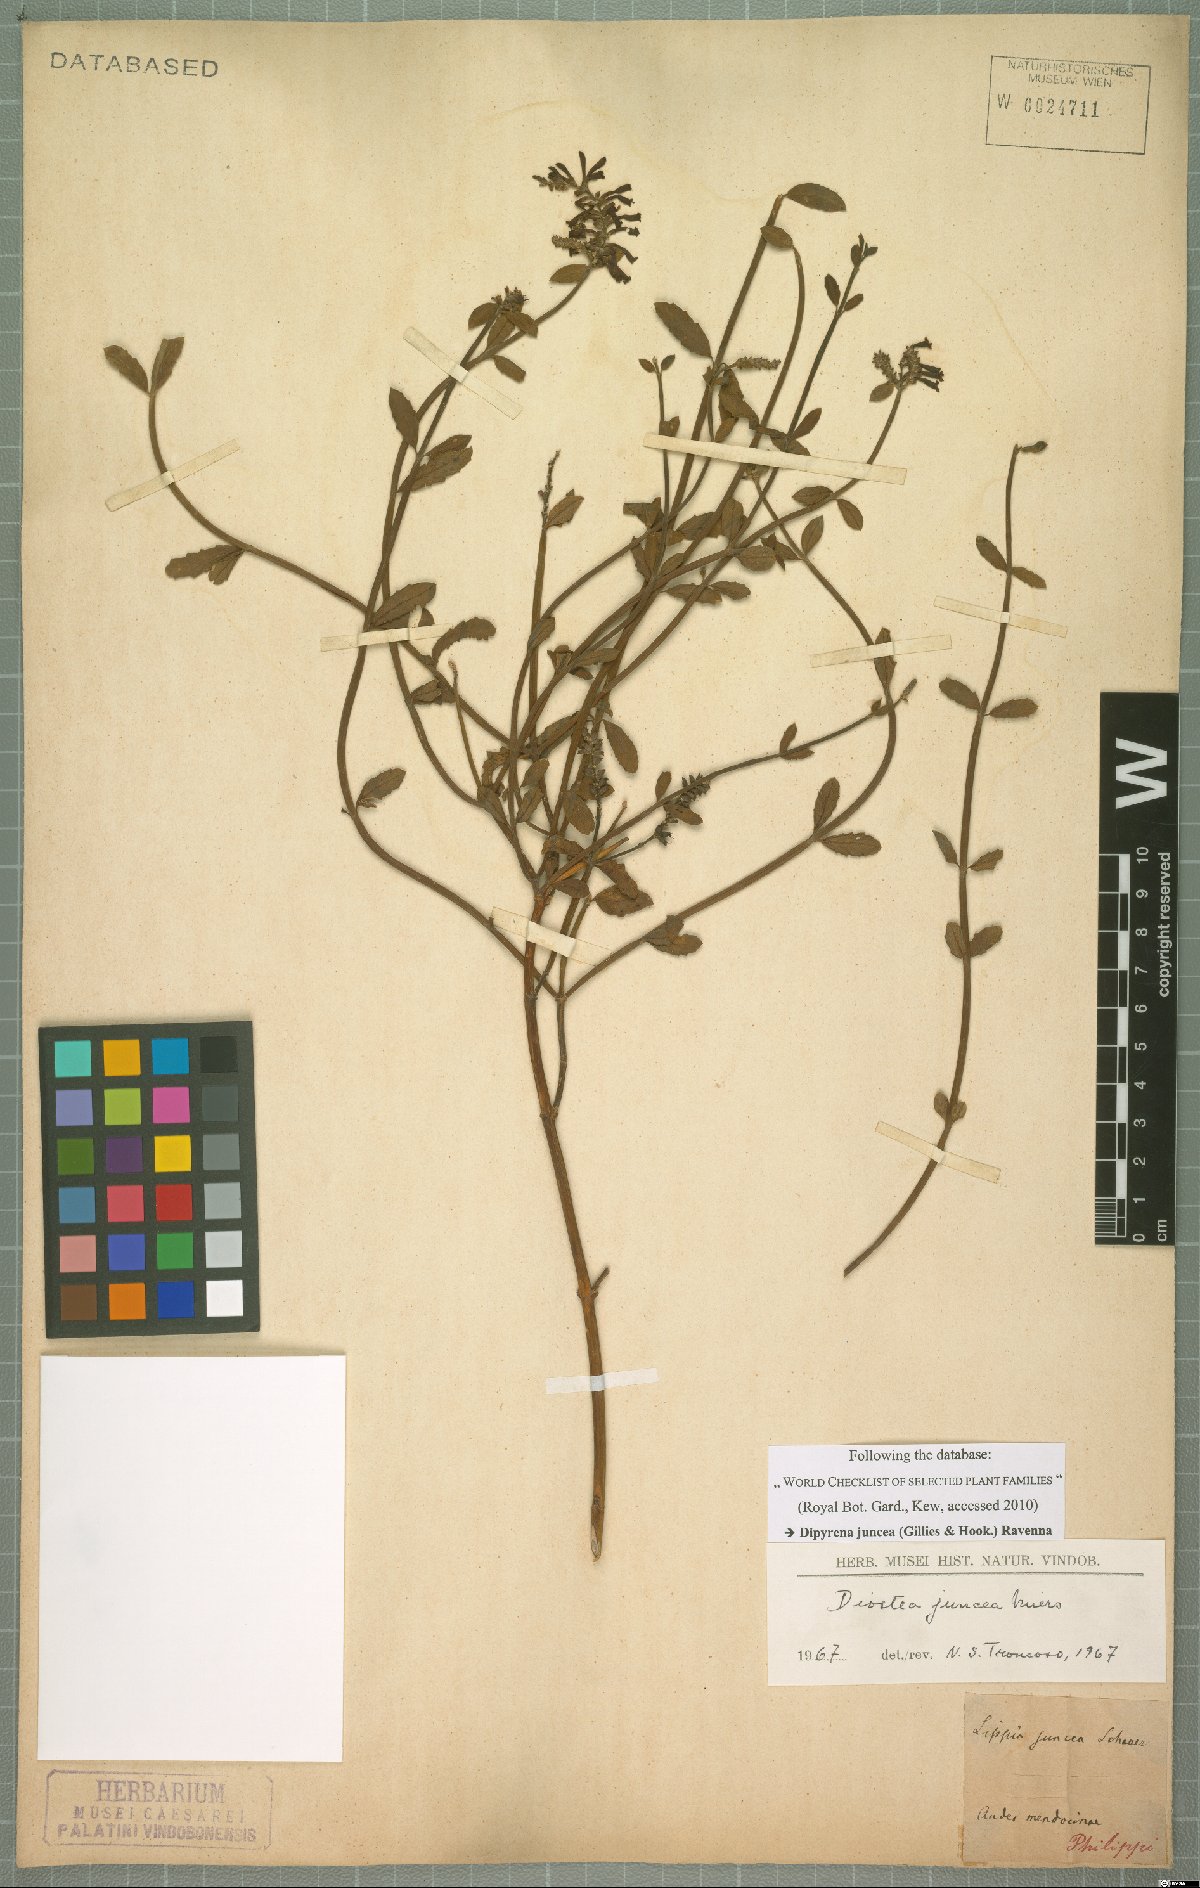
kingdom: Plantae
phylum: Tracheophyta
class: Magnoliopsida
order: Lamiales
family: Verbenaceae
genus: Diostea
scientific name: Diostea juncea
